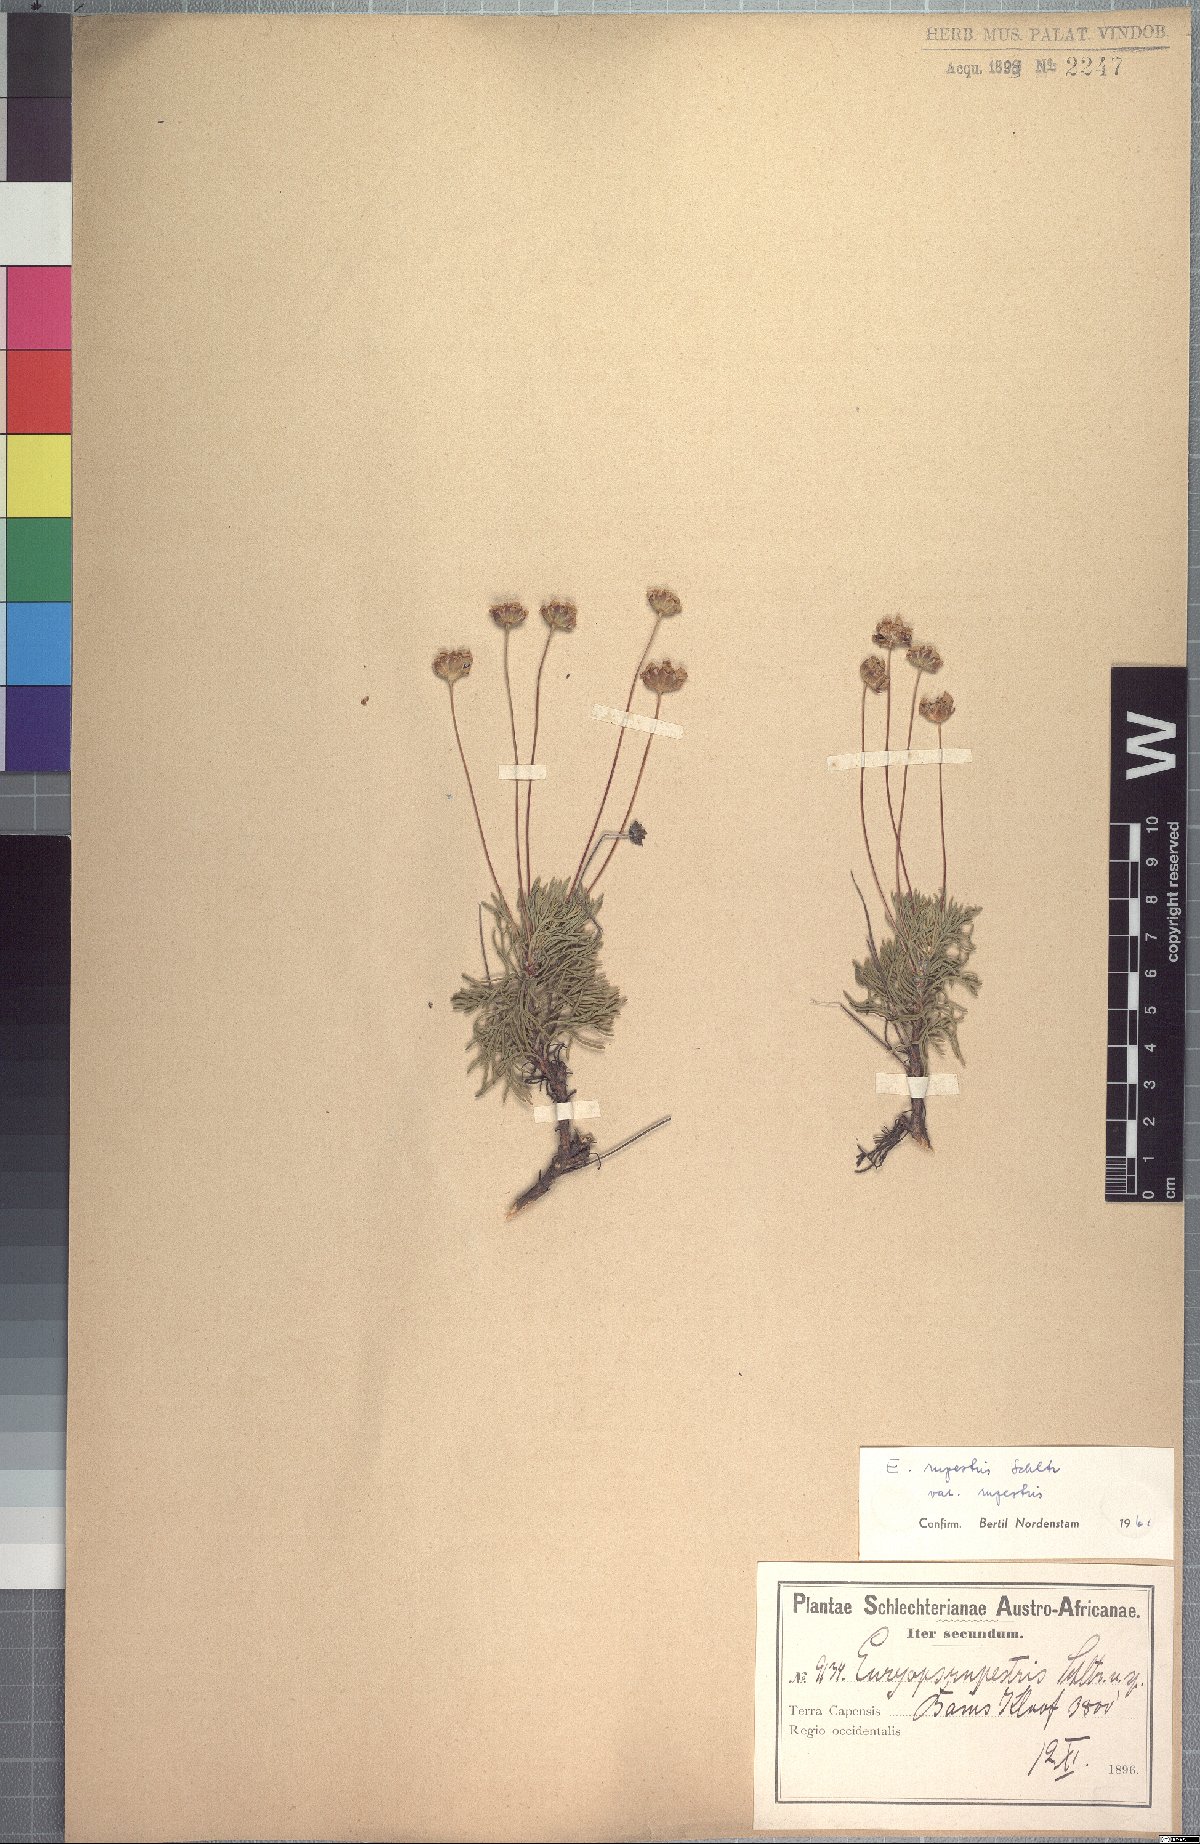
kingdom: Plantae
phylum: Tracheophyta
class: Magnoliopsida
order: Asterales
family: Asteraceae
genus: Euryops
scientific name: Euryops rupestris
